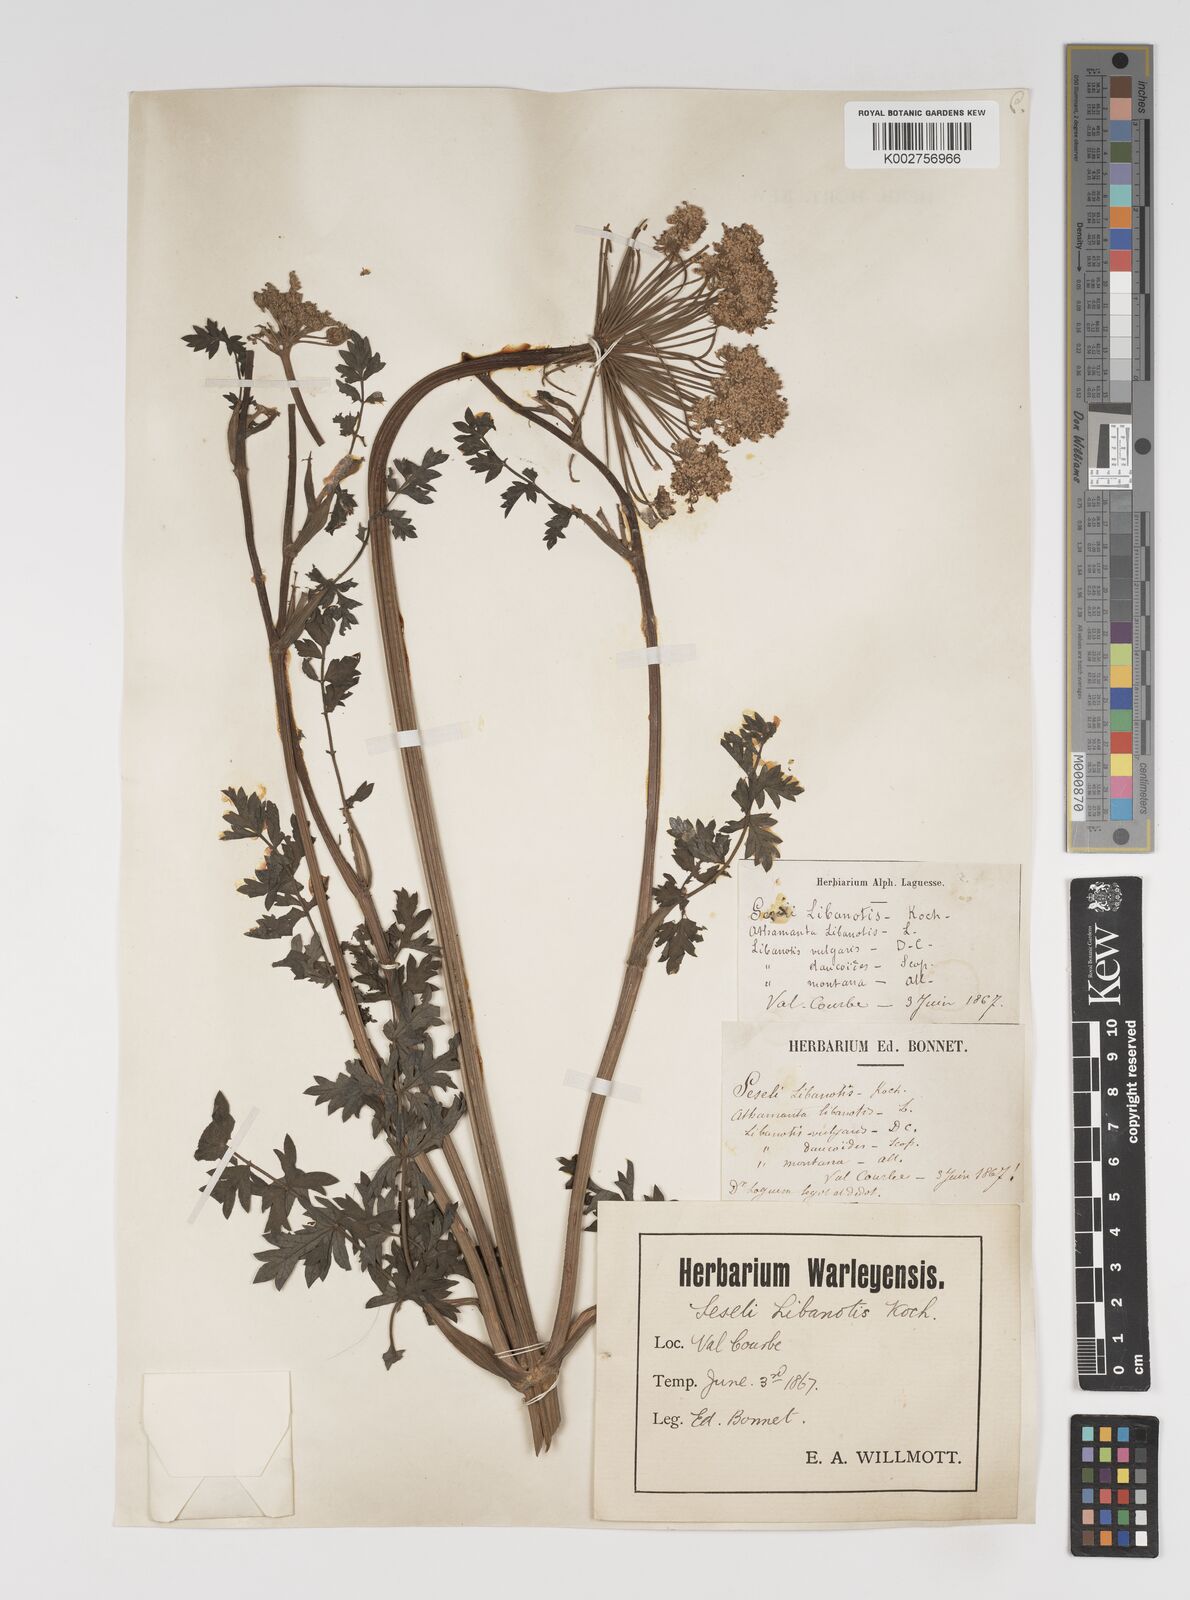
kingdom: Plantae
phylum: Tracheophyta
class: Magnoliopsida
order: Apiales
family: Apiaceae
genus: Seseli
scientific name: Seseli libanotis
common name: Mooncarrot
